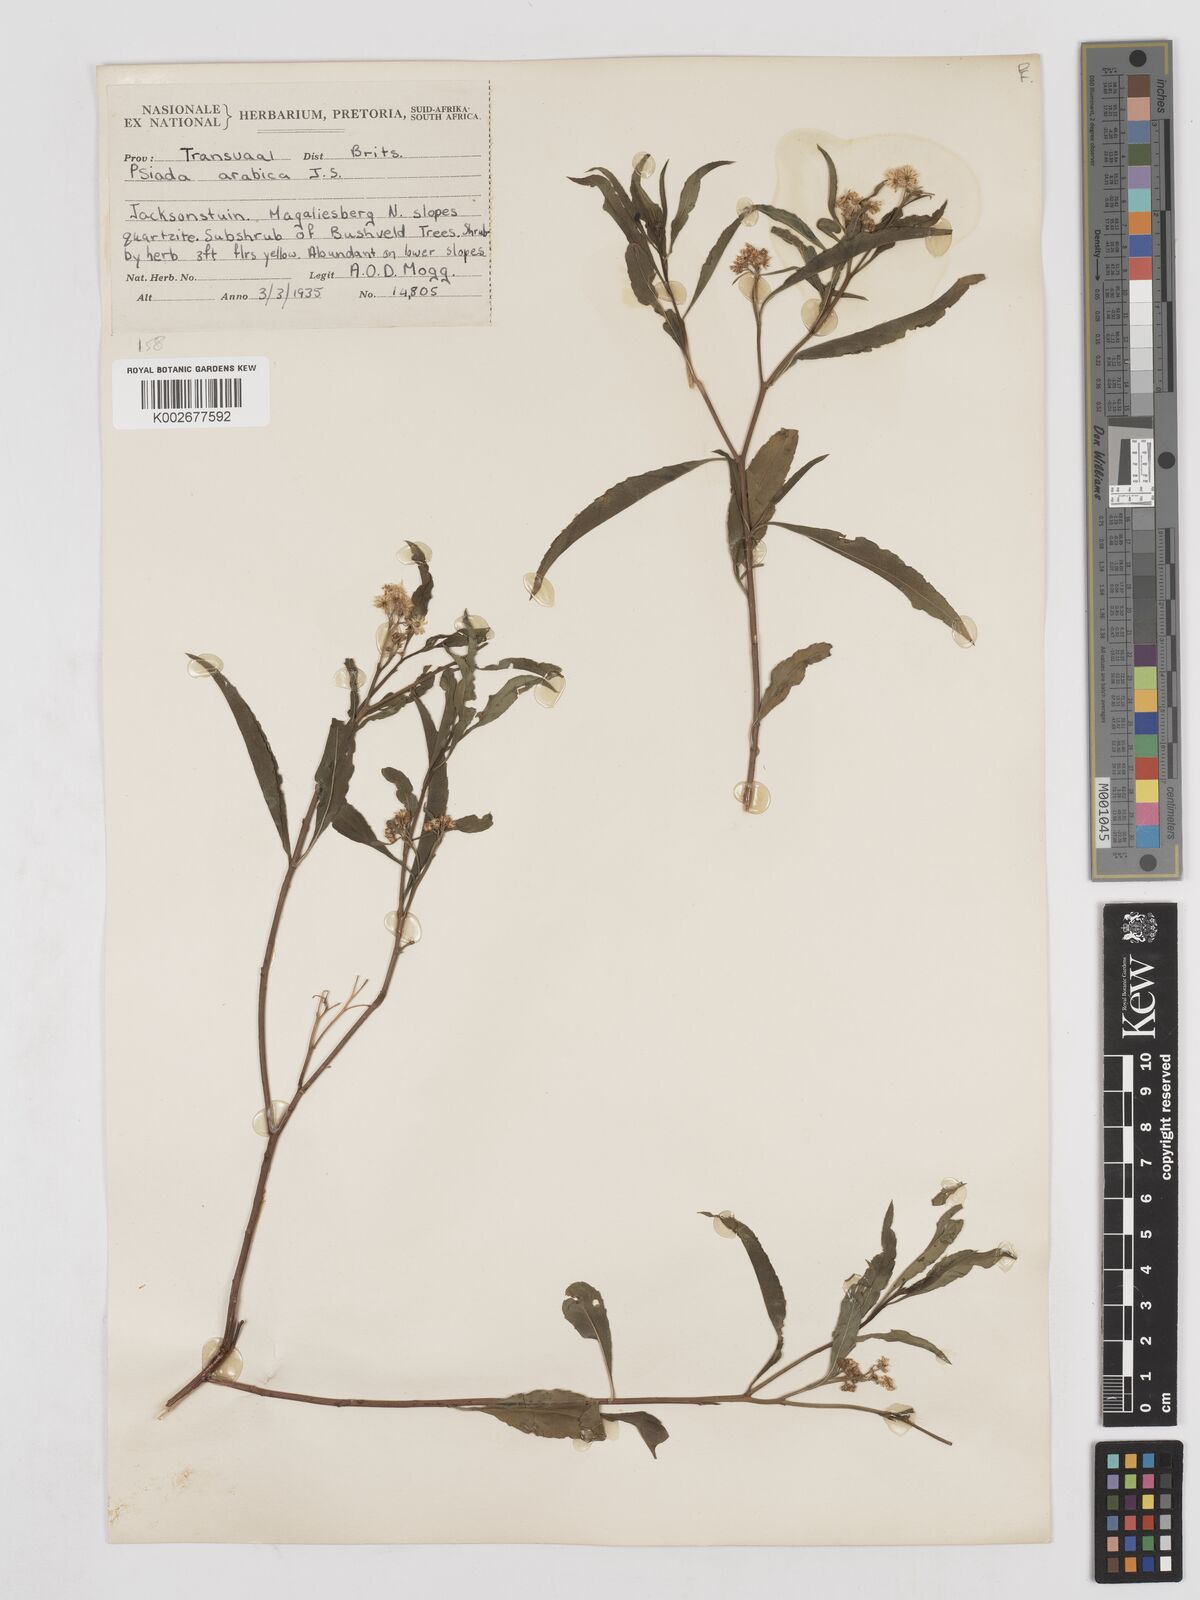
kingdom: Plantae
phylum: Tracheophyta
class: Magnoliopsida
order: Asterales
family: Asteraceae
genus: Psiadia
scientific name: Psiadia punctulata
